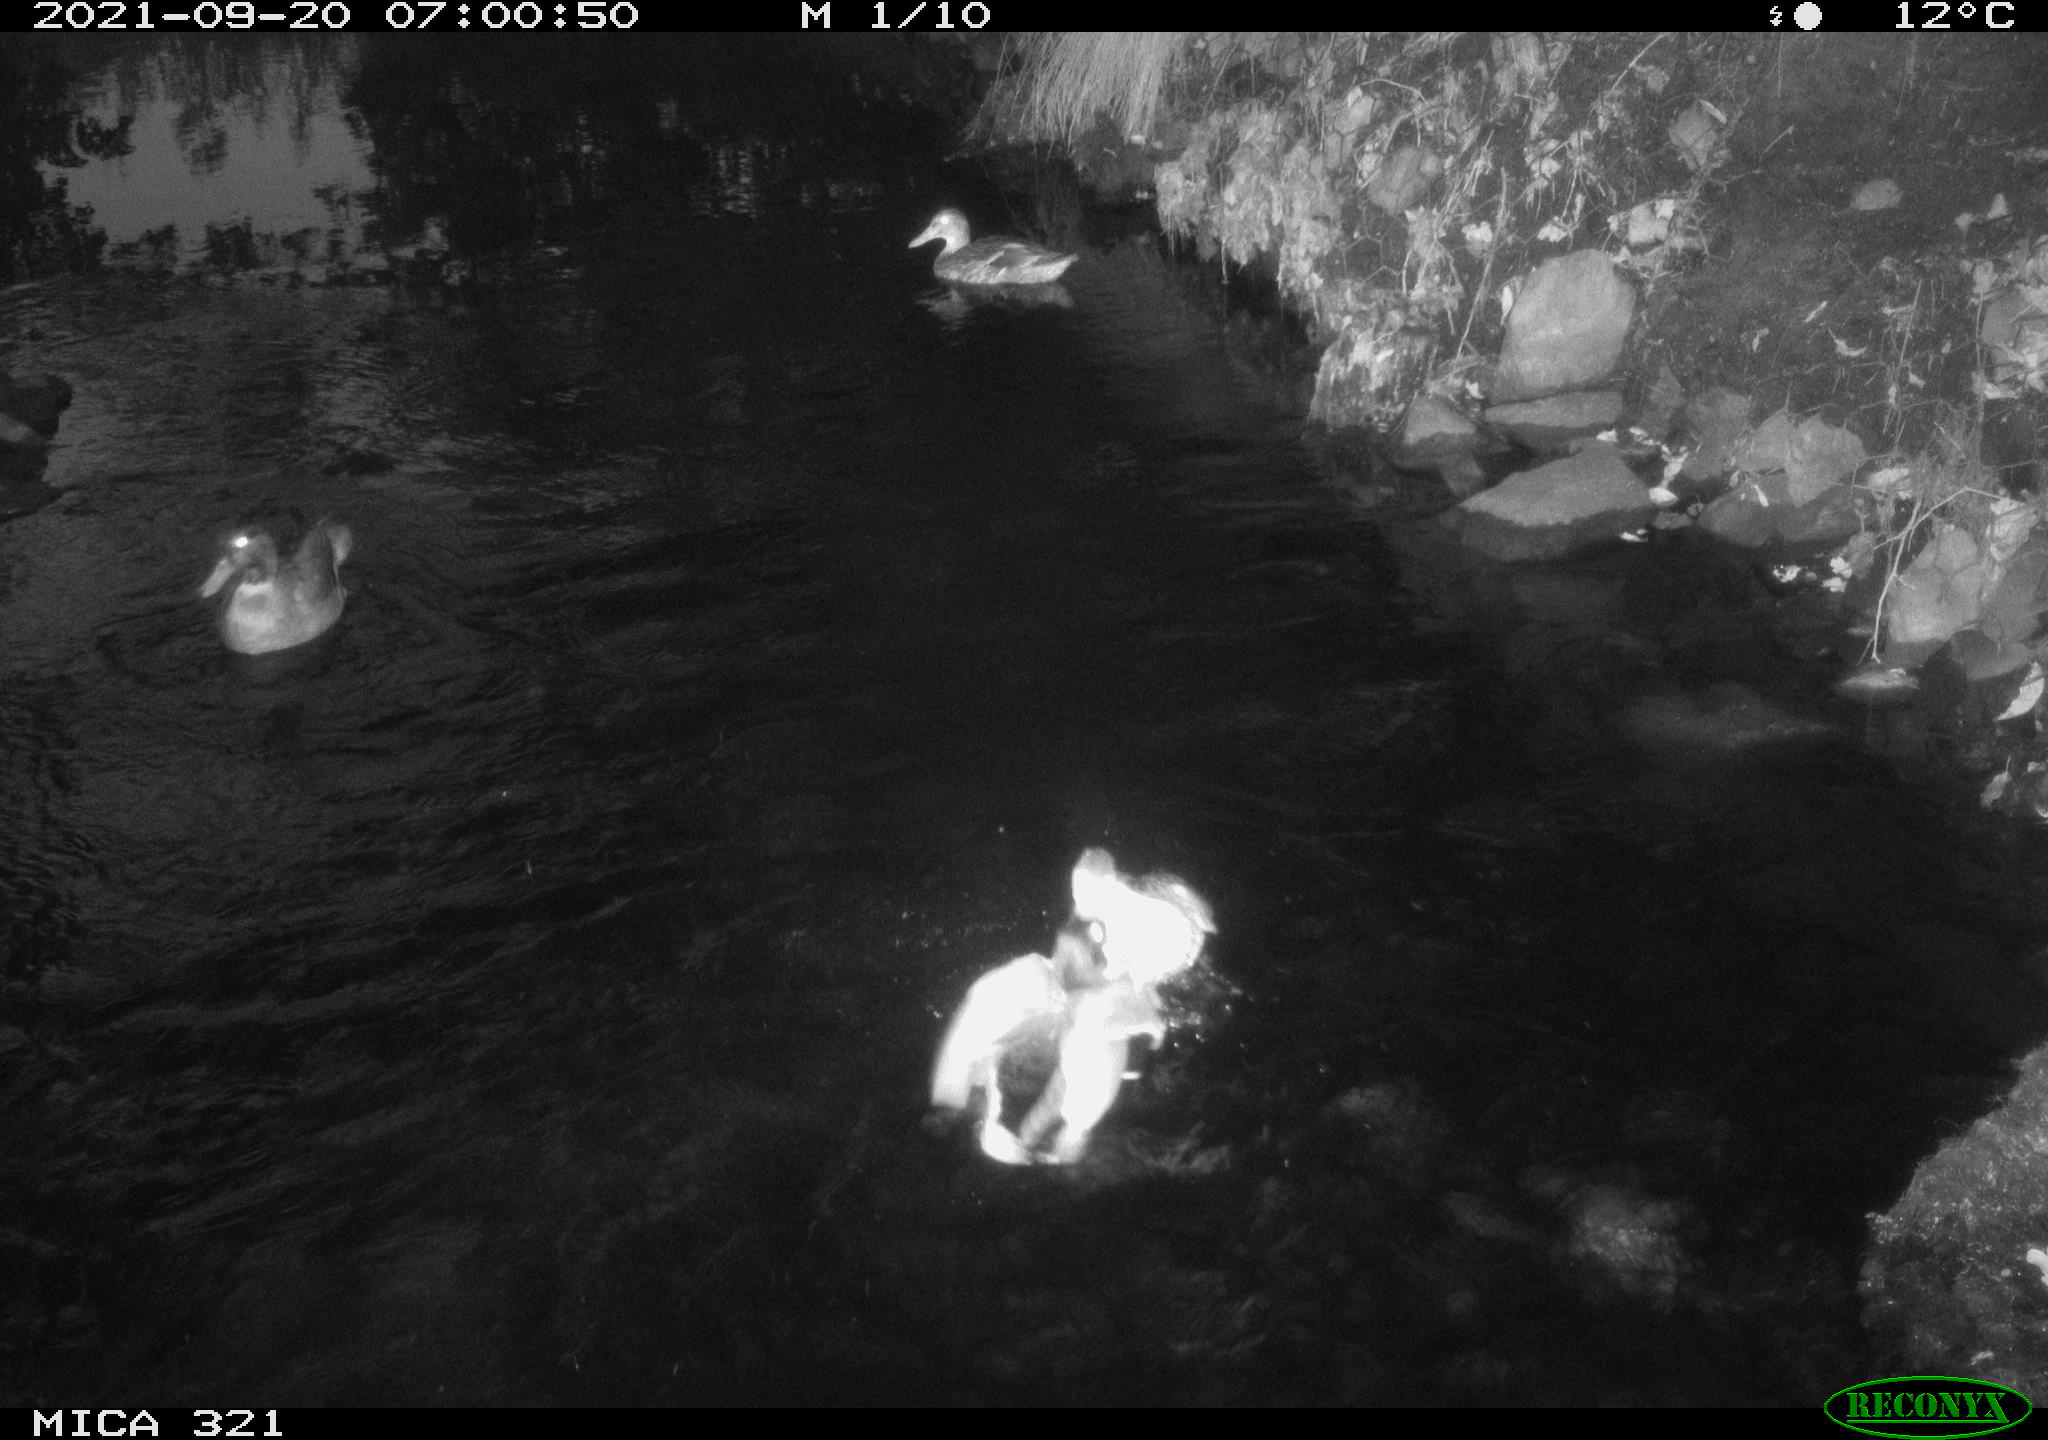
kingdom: Animalia
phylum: Chordata
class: Aves
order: Anseriformes
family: Anatidae
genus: Anas
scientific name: Anas platyrhynchos
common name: Mallard
